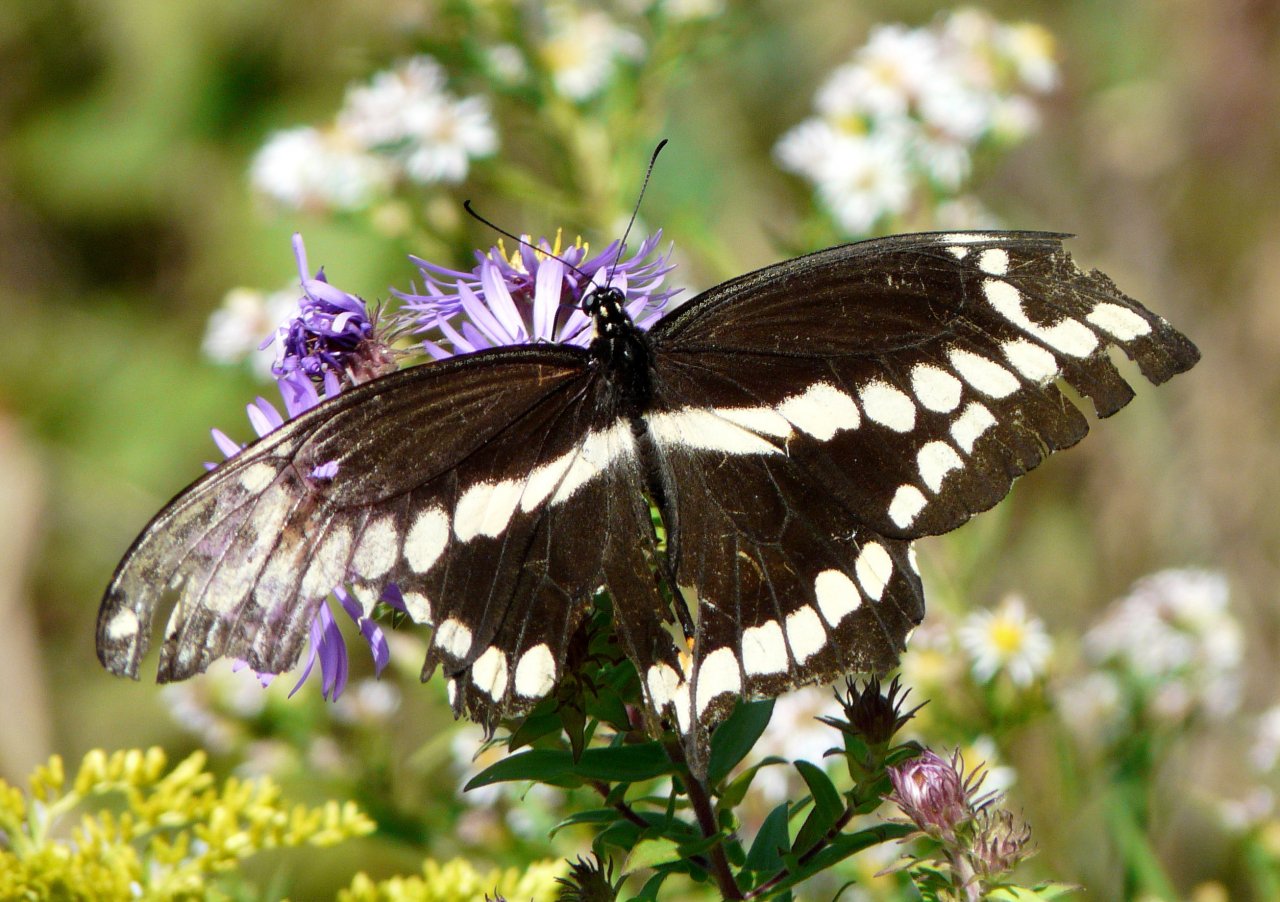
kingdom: Animalia
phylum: Arthropoda
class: Insecta
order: Lepidoptera
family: Papilionidae
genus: Papilio
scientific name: Papilio cresphontes
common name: Eastern Giant Swallowtail
